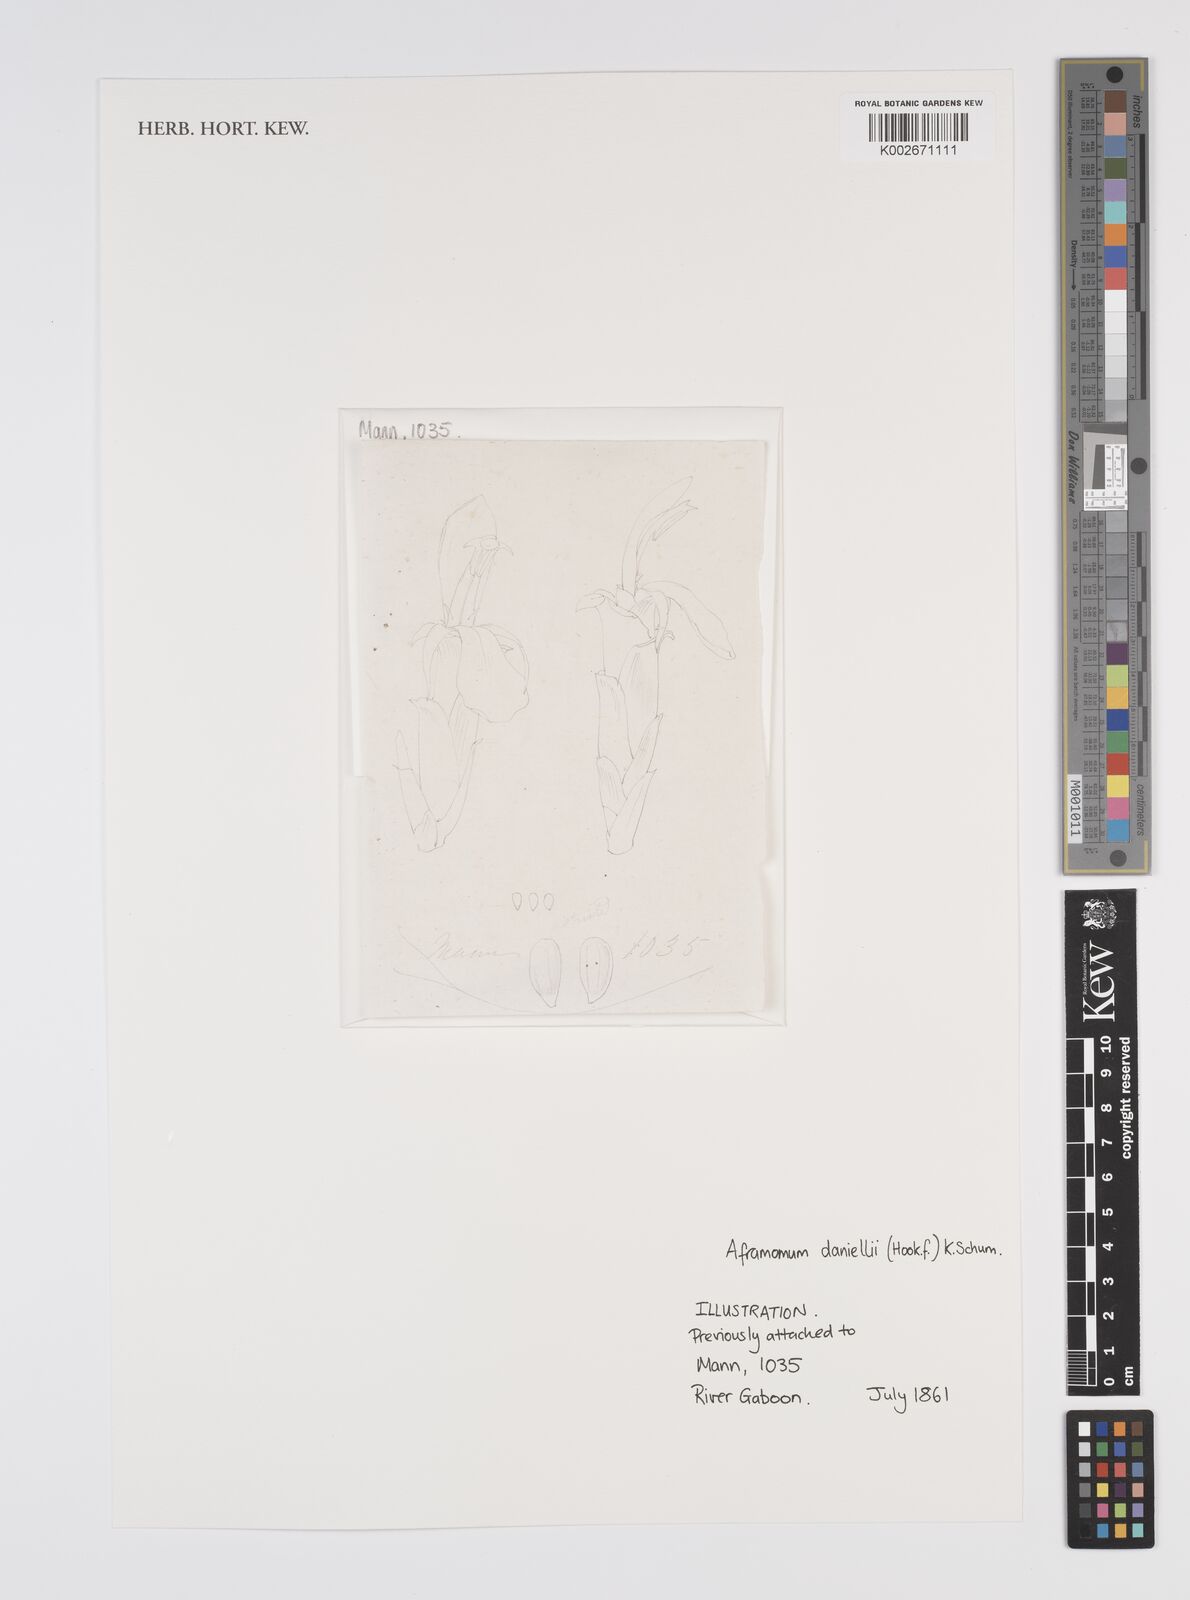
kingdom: Plantae
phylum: Tracheophyta
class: Liliopsida
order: Zingiberales
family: Zingiberaceae
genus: Aframomum
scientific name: Aframomum daniellii
